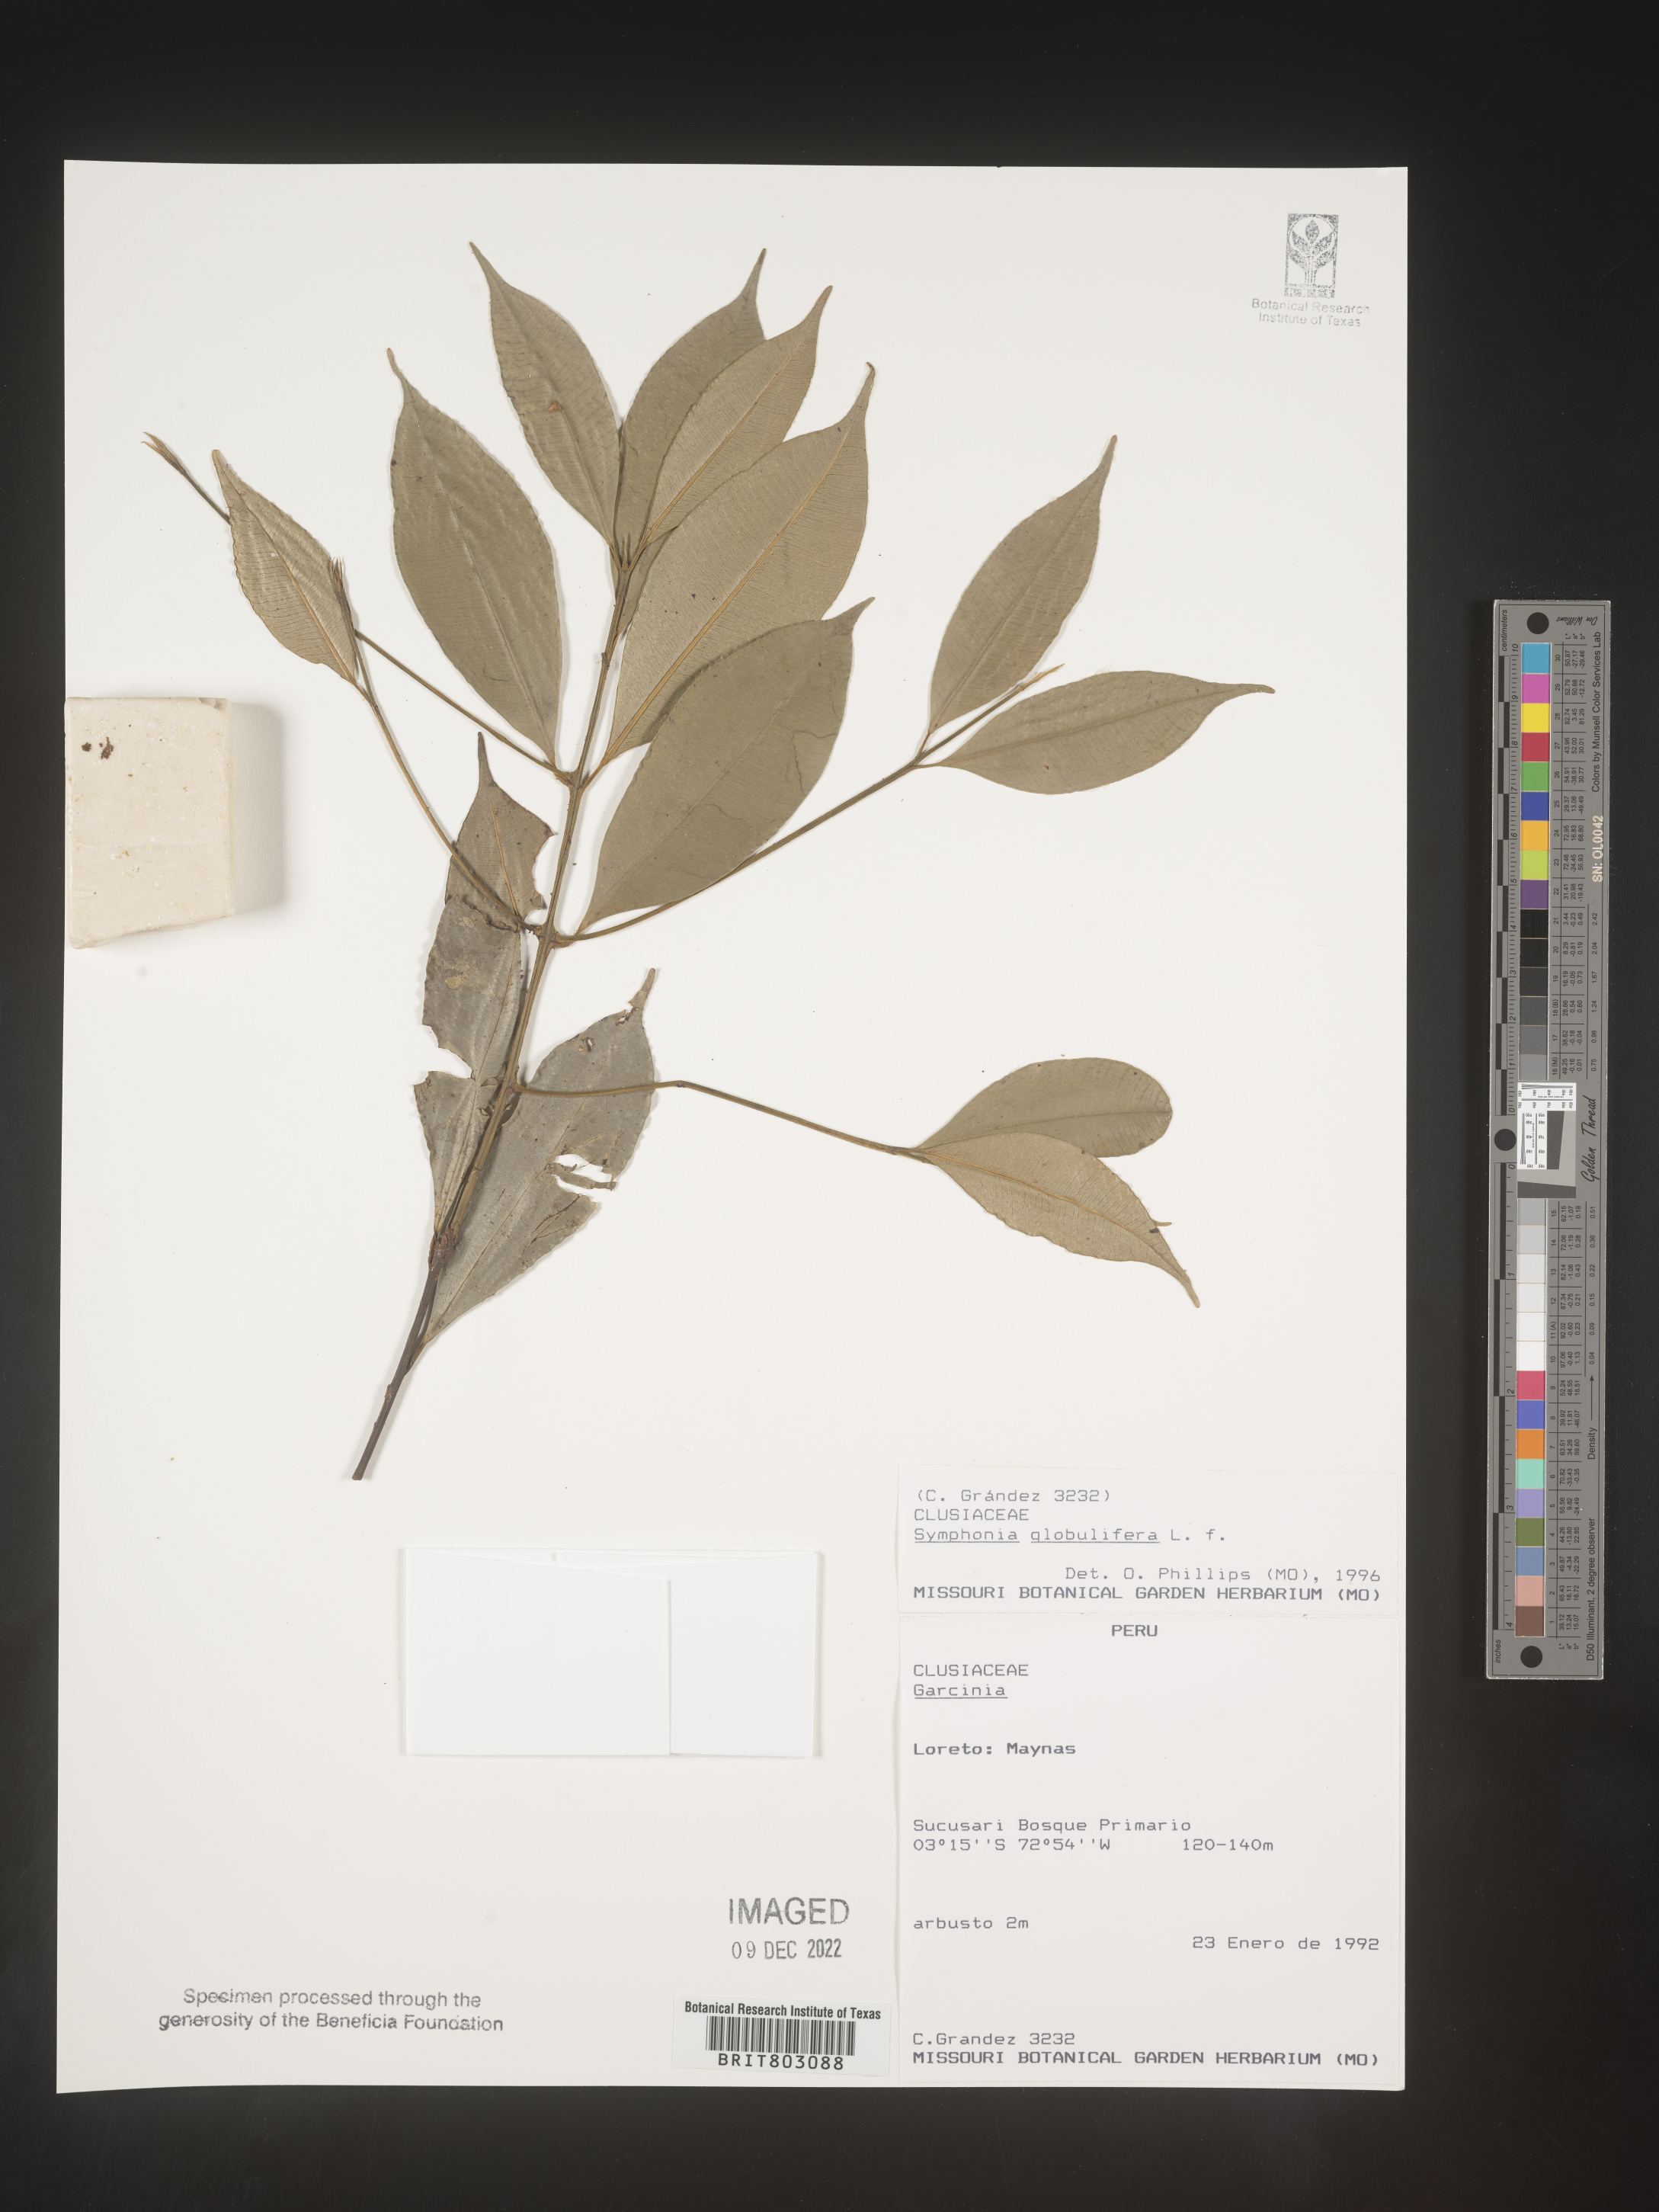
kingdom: Plantae
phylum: Tracheophyta
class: Magnoliopsida
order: Malpighiales
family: Clusiaceae
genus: Symphonia
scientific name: Symphonia
